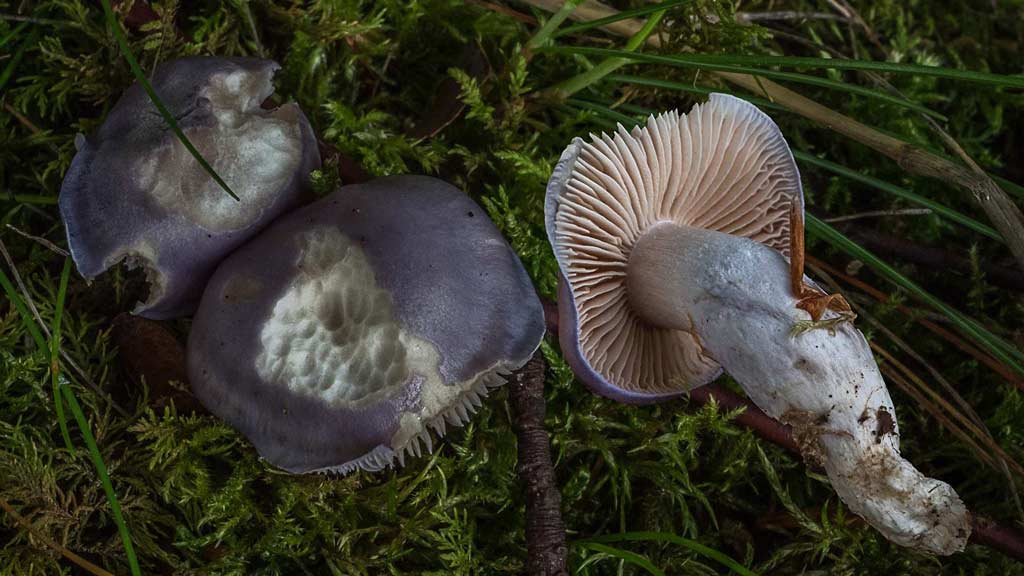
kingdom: Fungi
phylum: Basidiomycota
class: Agaricomycetes
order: Agaricales
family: Cortinariaceae
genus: Thaxterogaster
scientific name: Thaxterogaster croceocoeruleus
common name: blågullig slørhat
